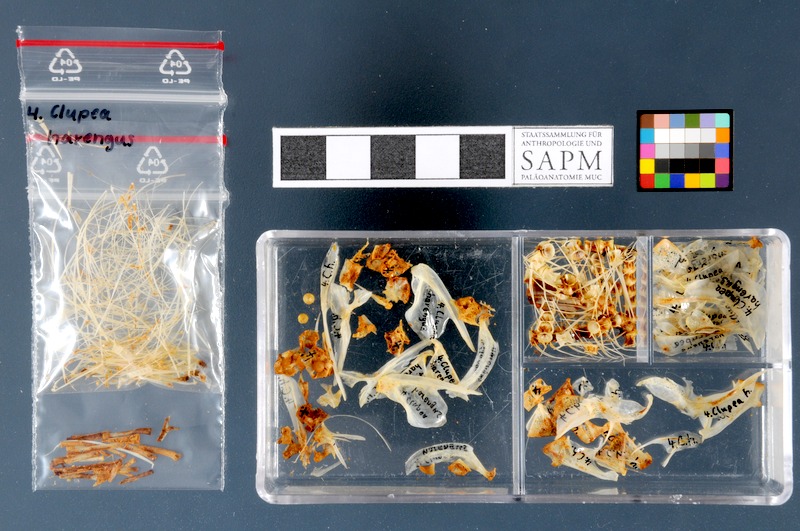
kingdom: Animalia
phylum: Chordata
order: Clupeiformes
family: Clupeidae
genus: Clupea
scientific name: Clupea harengus
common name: Herring
